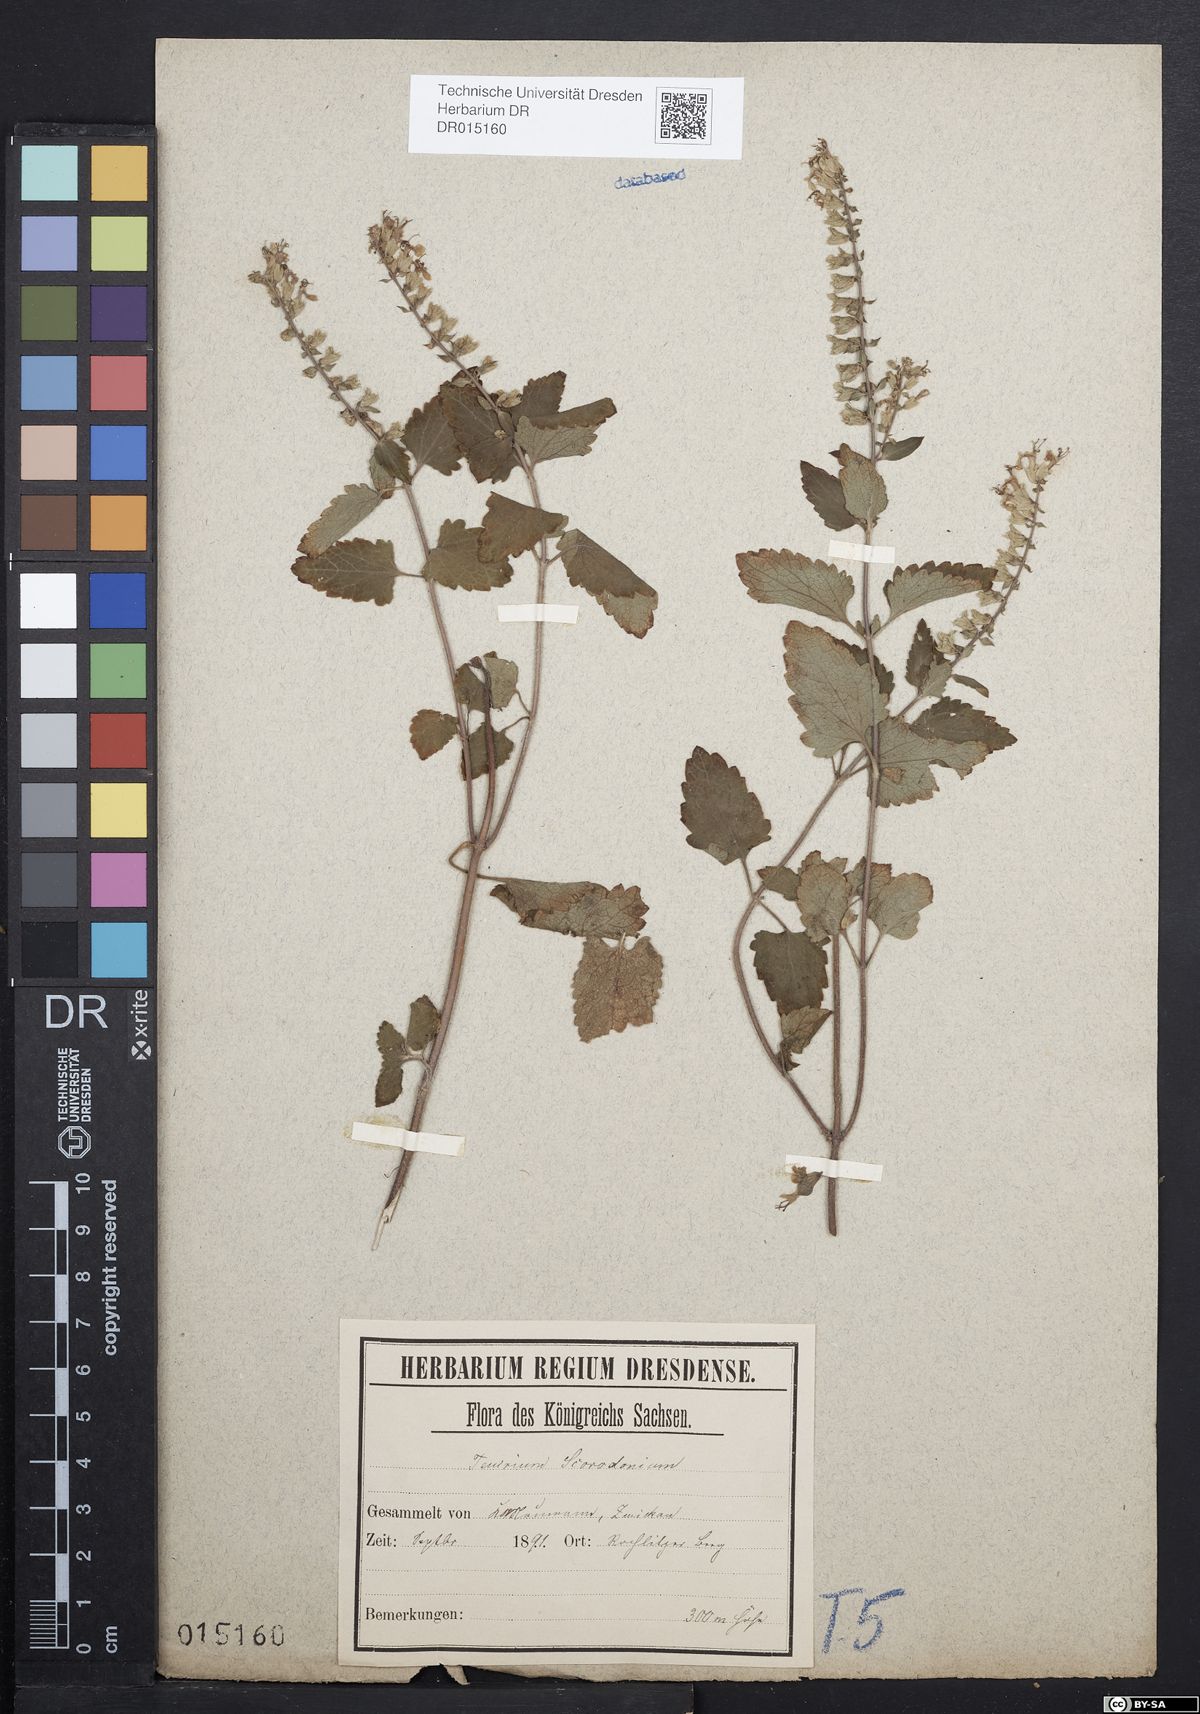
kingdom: Plantae
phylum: Tracheophyta
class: Magnoliopsida
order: Lamiales
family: Lamiaceae
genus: Teucrium
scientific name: Teucrium scorodonia
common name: Woodland germander
